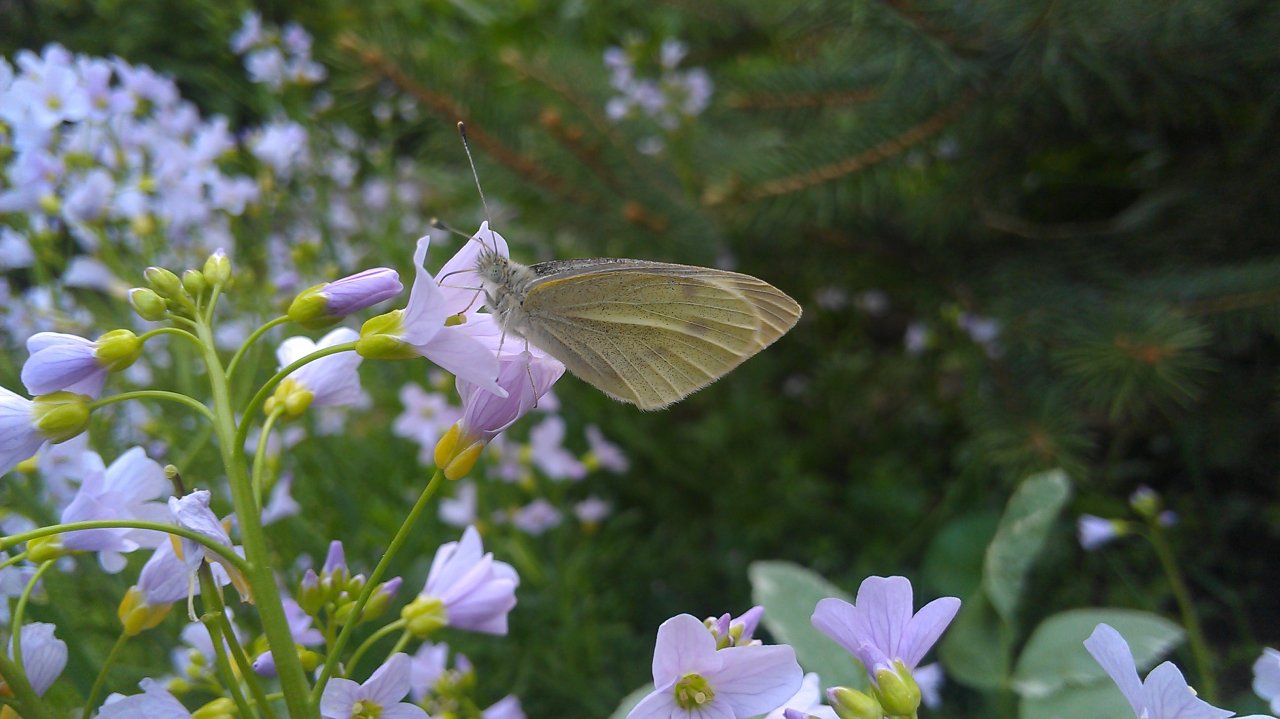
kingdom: Animalia
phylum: Arthropoda
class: Insecta
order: Lepidoptera
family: Pieridae
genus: Pieris
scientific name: Pieris rapae
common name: Cabbage White
